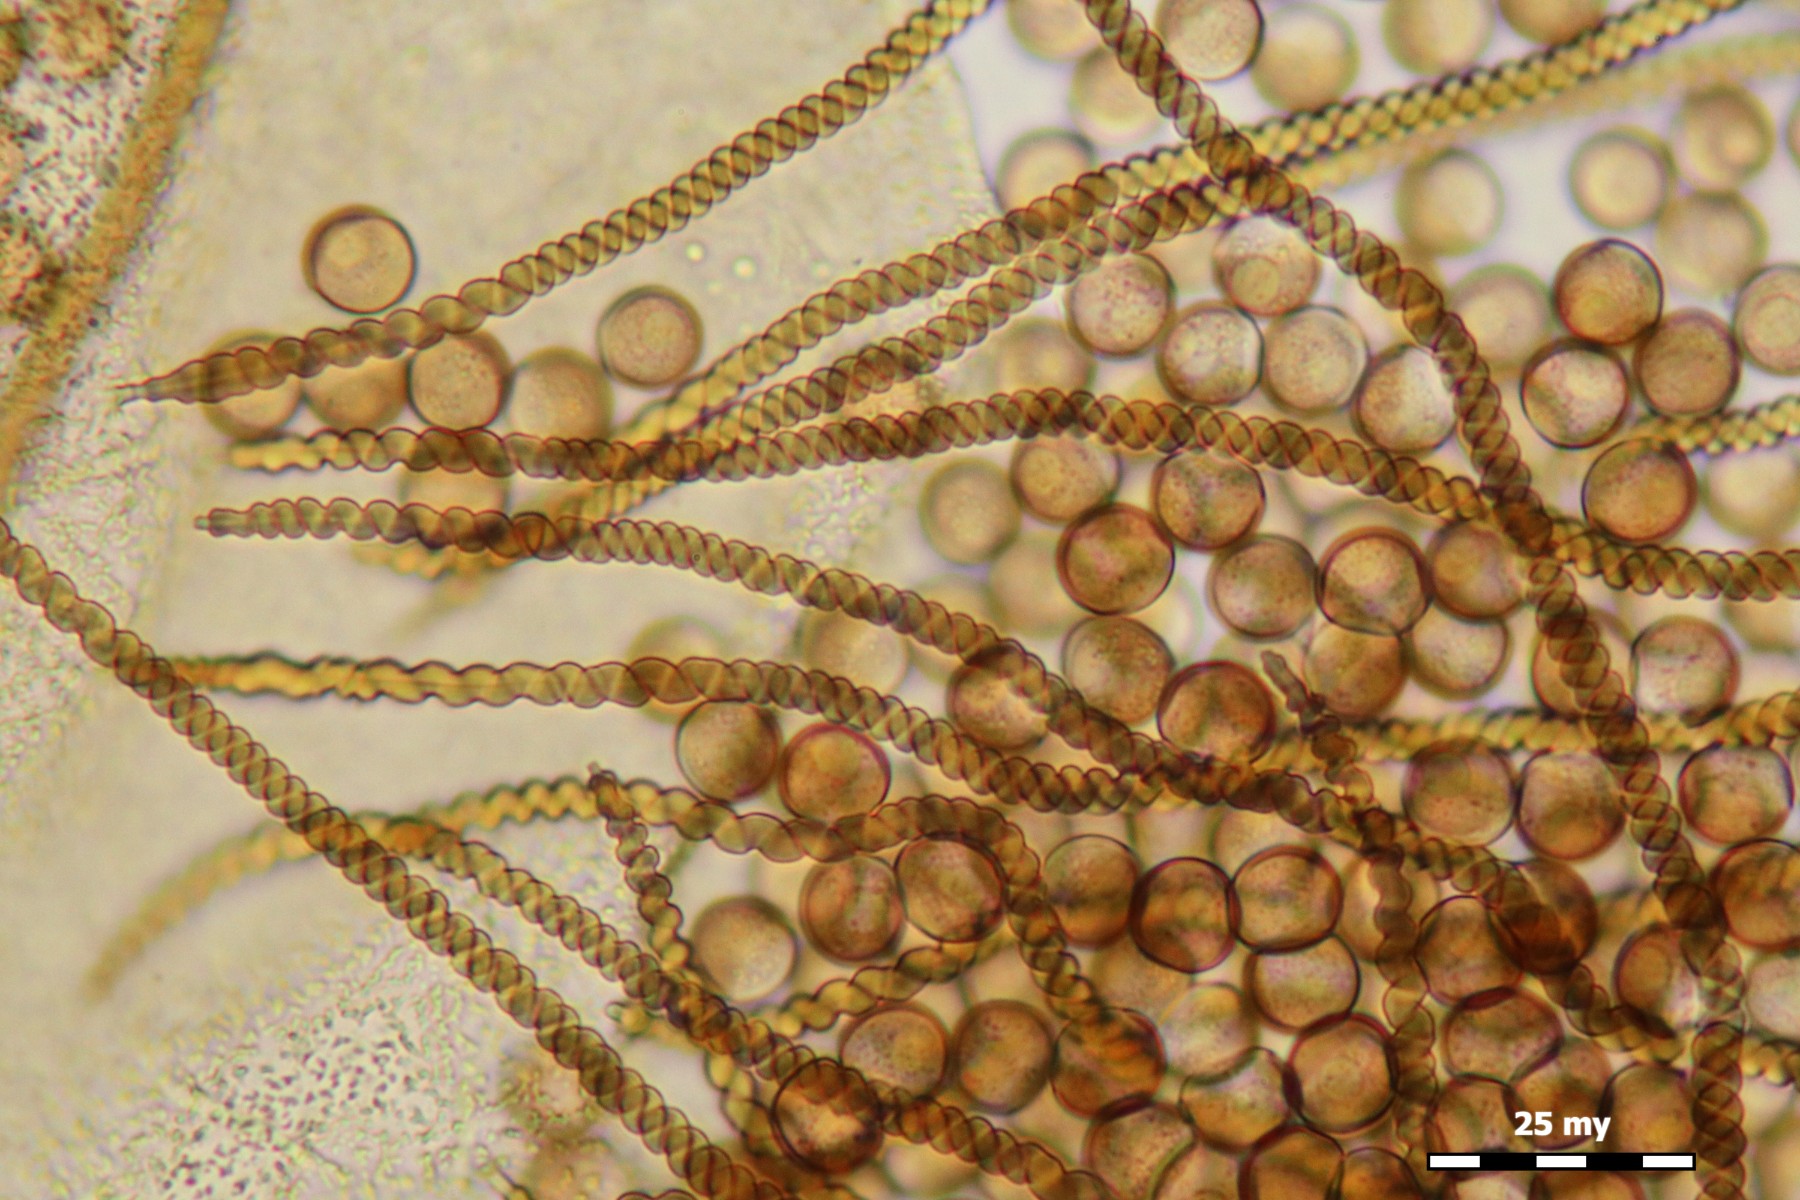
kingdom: Protozoa
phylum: Mycetozoa
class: Myxomycetes
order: Trichiales
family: Trichiaceae
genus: Trichioides
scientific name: Trichioides iridescens
